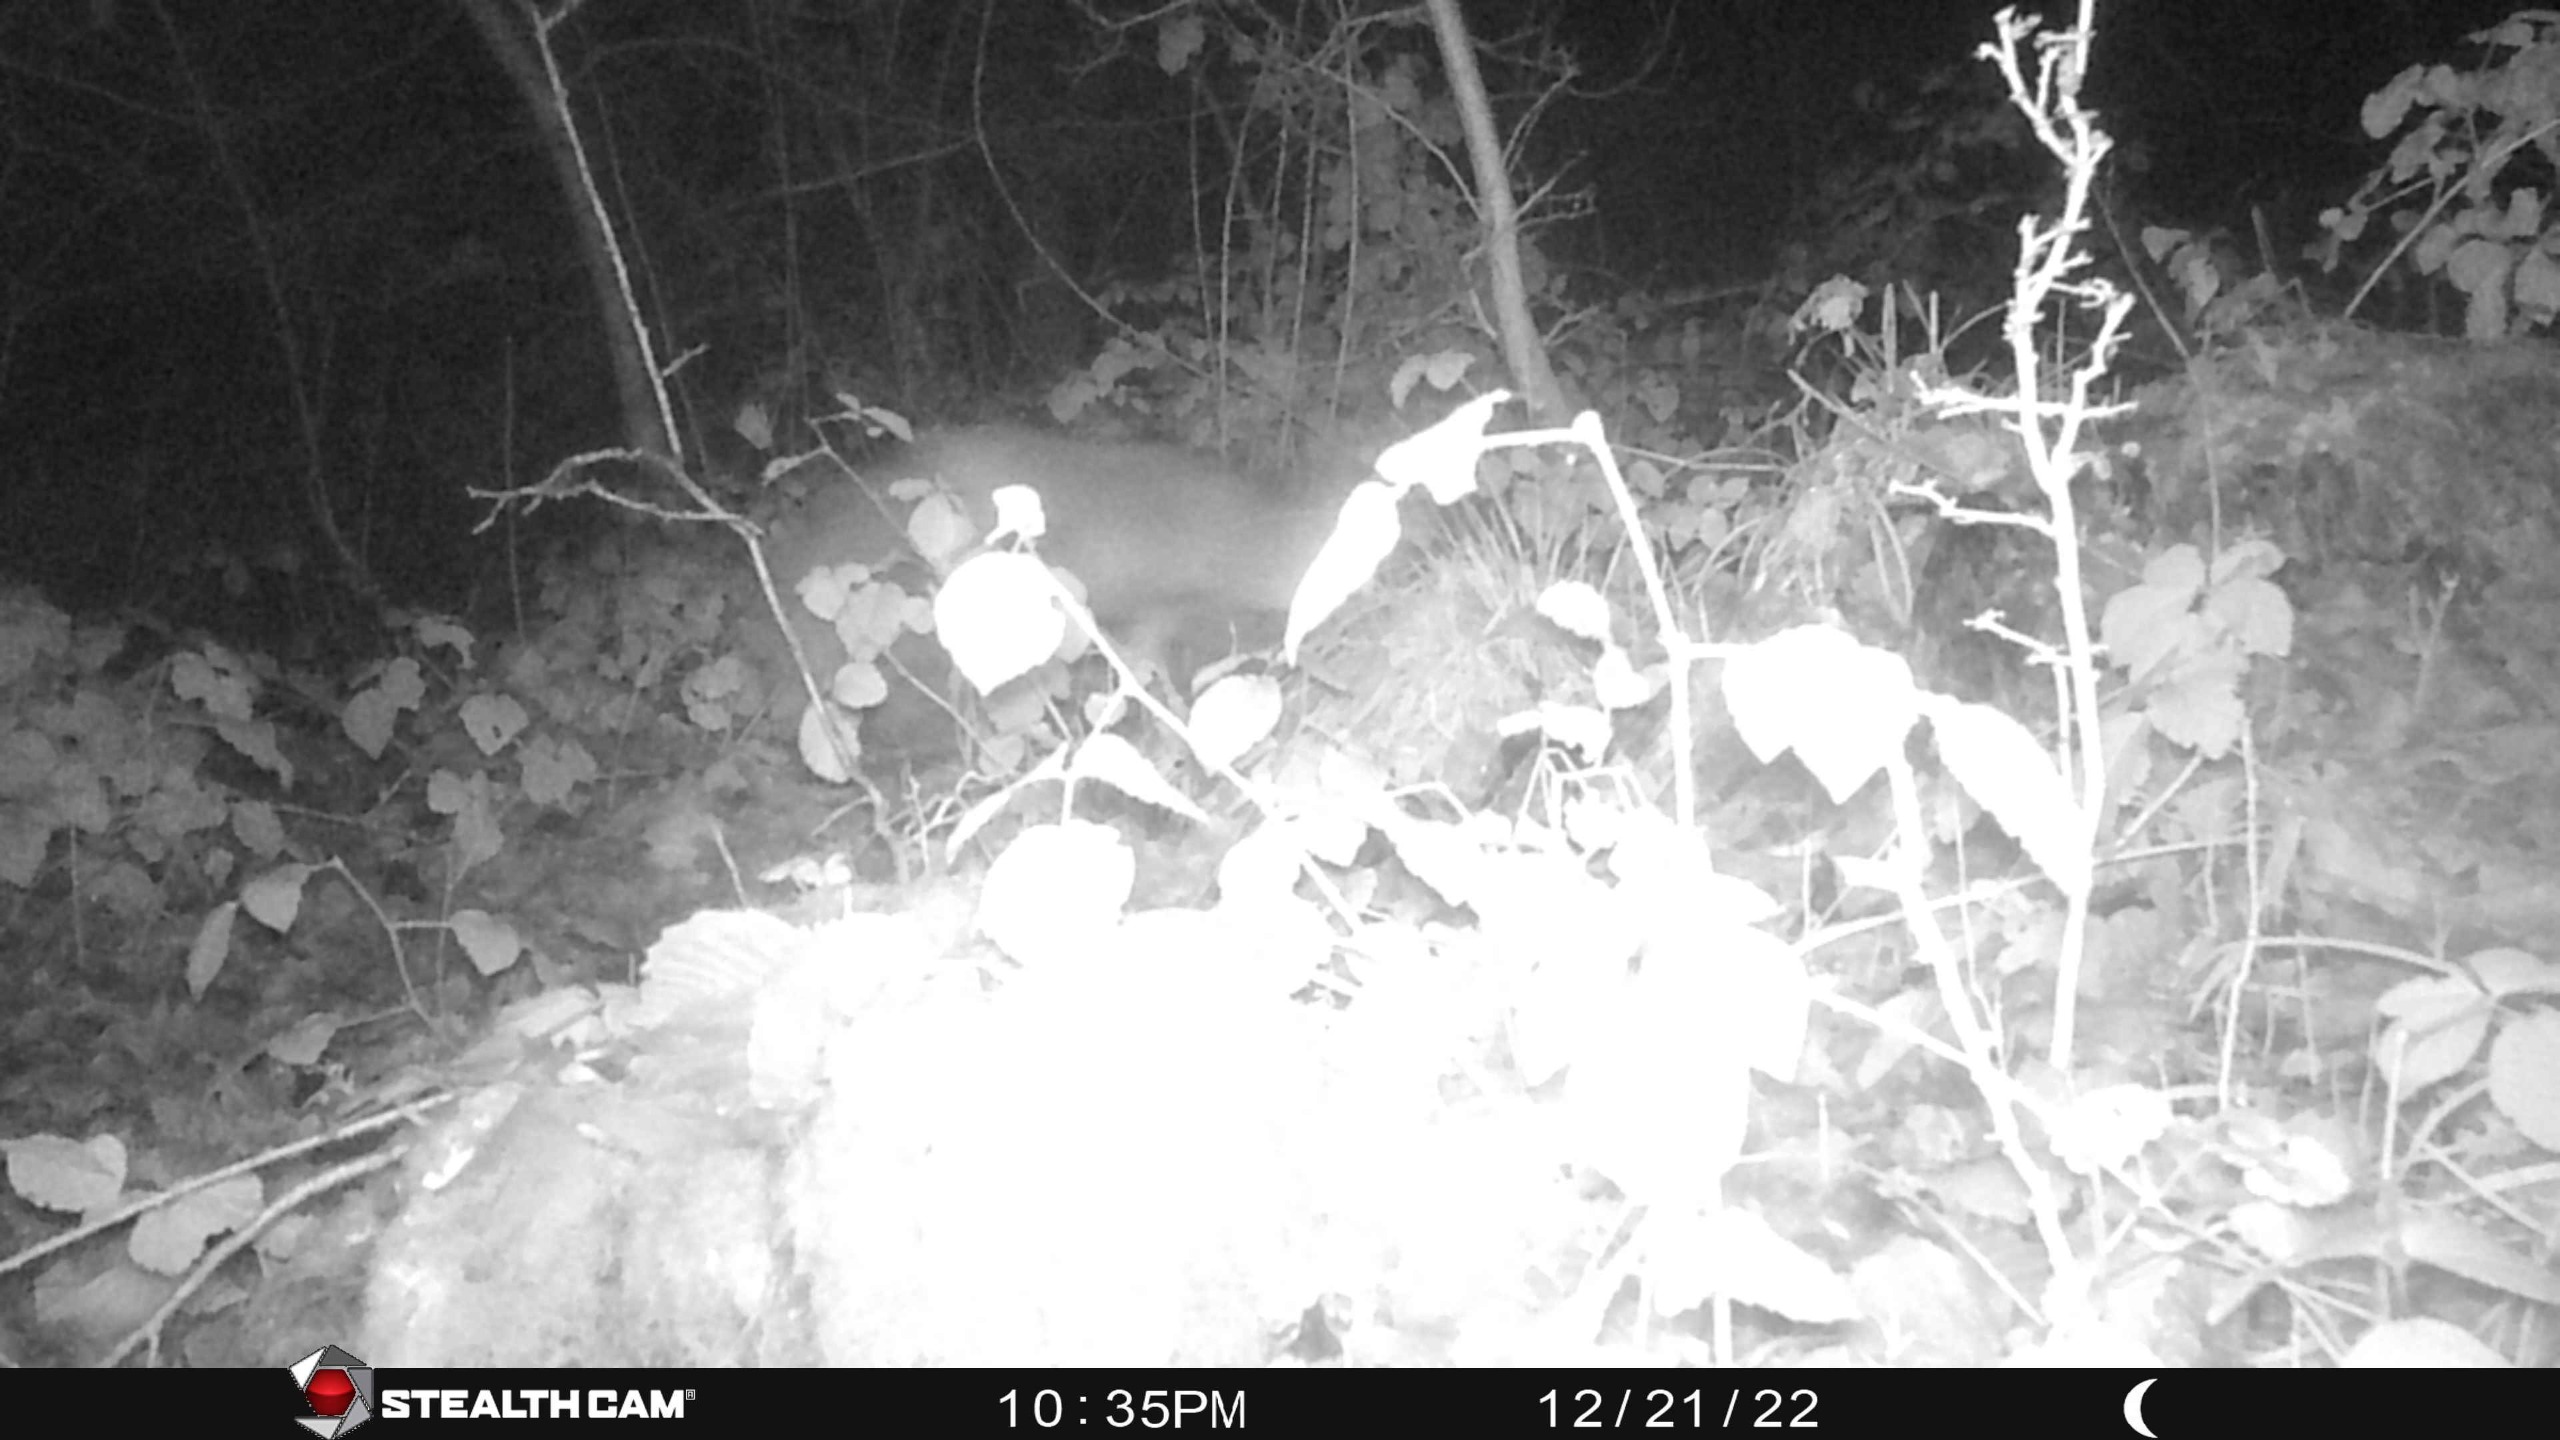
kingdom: Animalia
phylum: Chordata
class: Mammalia
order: Carnivora
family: Canidae
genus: Vulpes
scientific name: Vulpes vulpes
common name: Ræv
